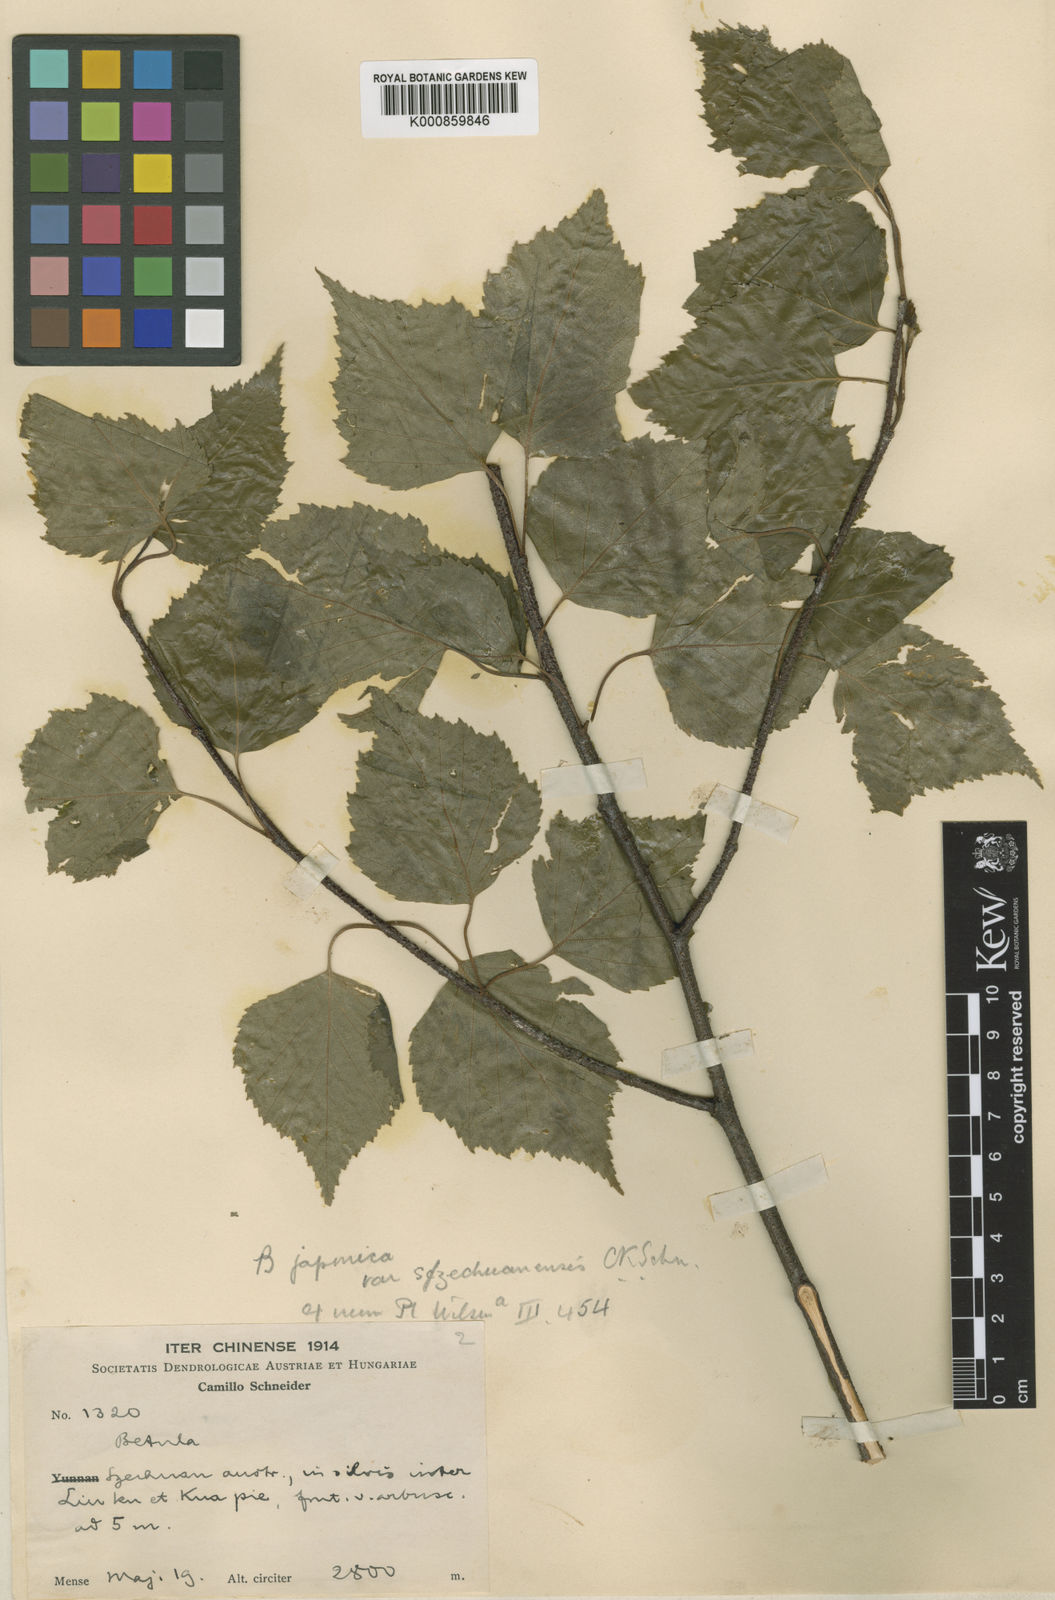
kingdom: Plantae
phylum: Tracheophyta
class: Magnoliopsida
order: Fagales
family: Betulaceae
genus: Betula
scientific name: Betula pendula
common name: Silver birch
